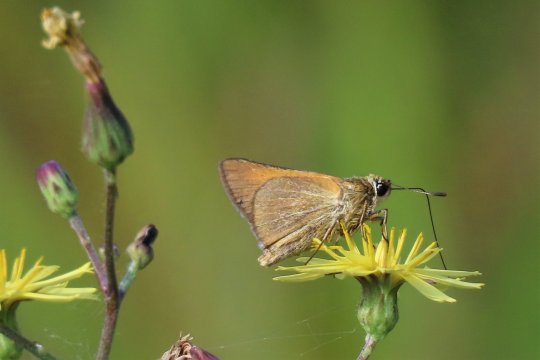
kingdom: Animalia
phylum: Arthropoda
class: Insecta
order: Lepidoptera
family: Hesperiidae
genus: Atrytone
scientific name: Atrytone arogos
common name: Arogos Skipper
